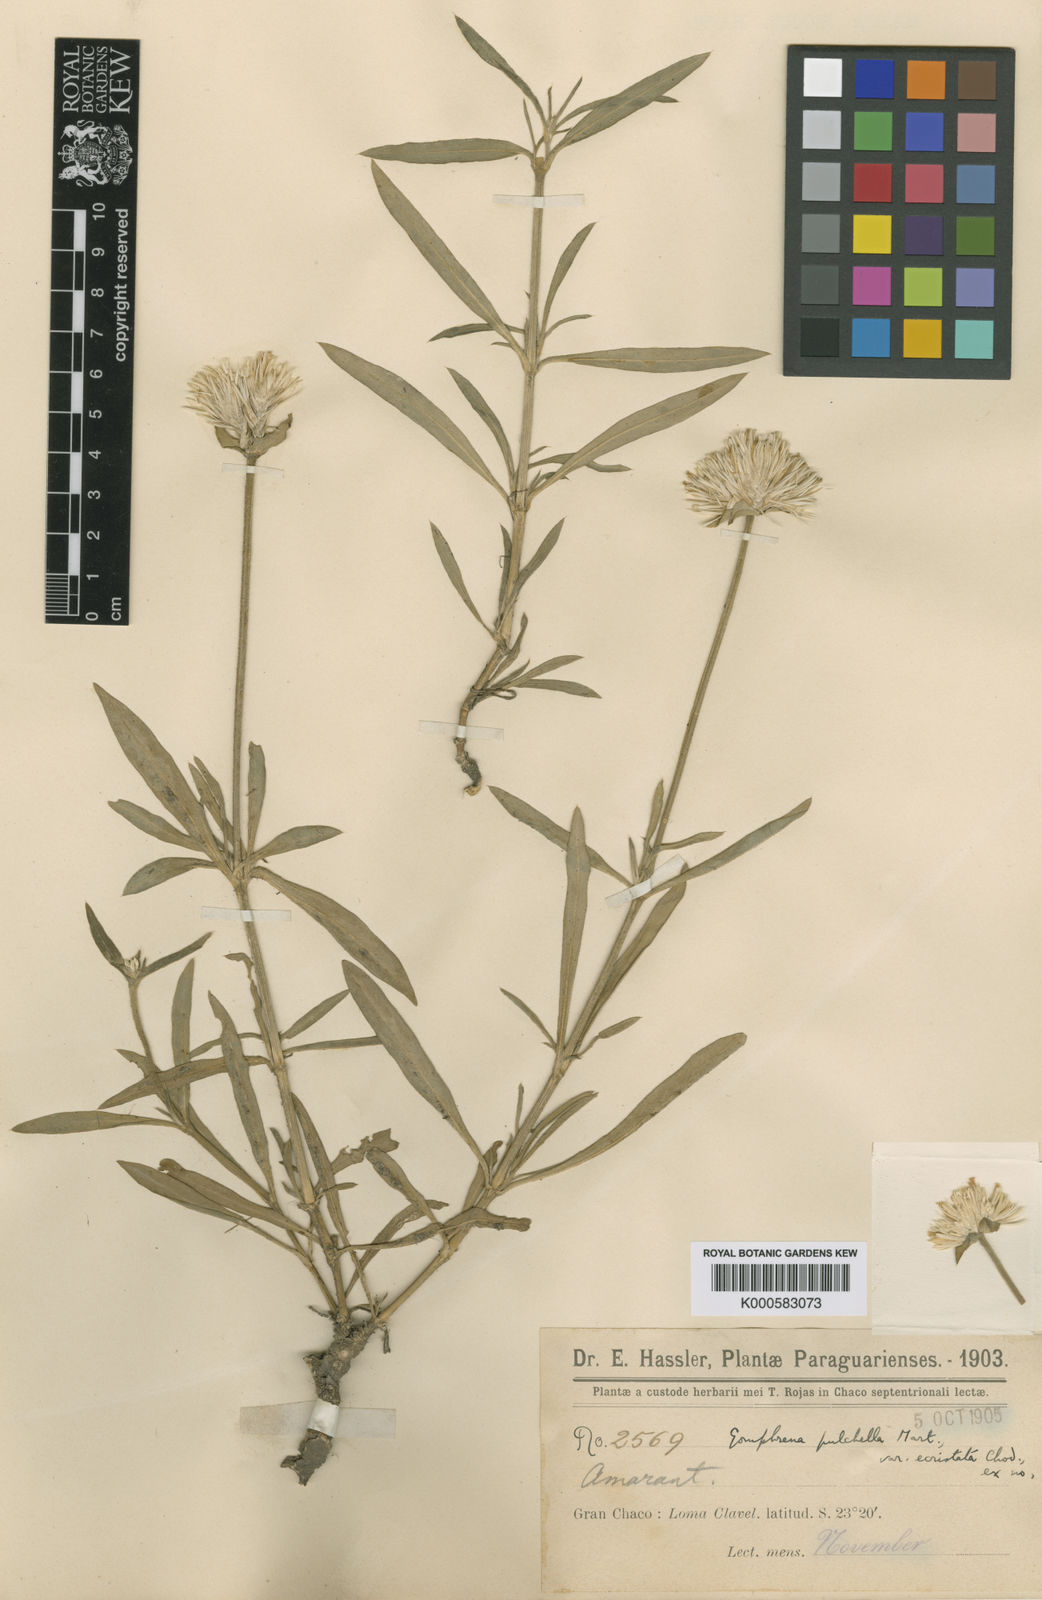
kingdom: Plantae
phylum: Tracheophyta
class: Magnoliopsida
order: Caryophyllales
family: Amaranthaceae
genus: Gomphrena
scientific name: Gomphrena pulchella
